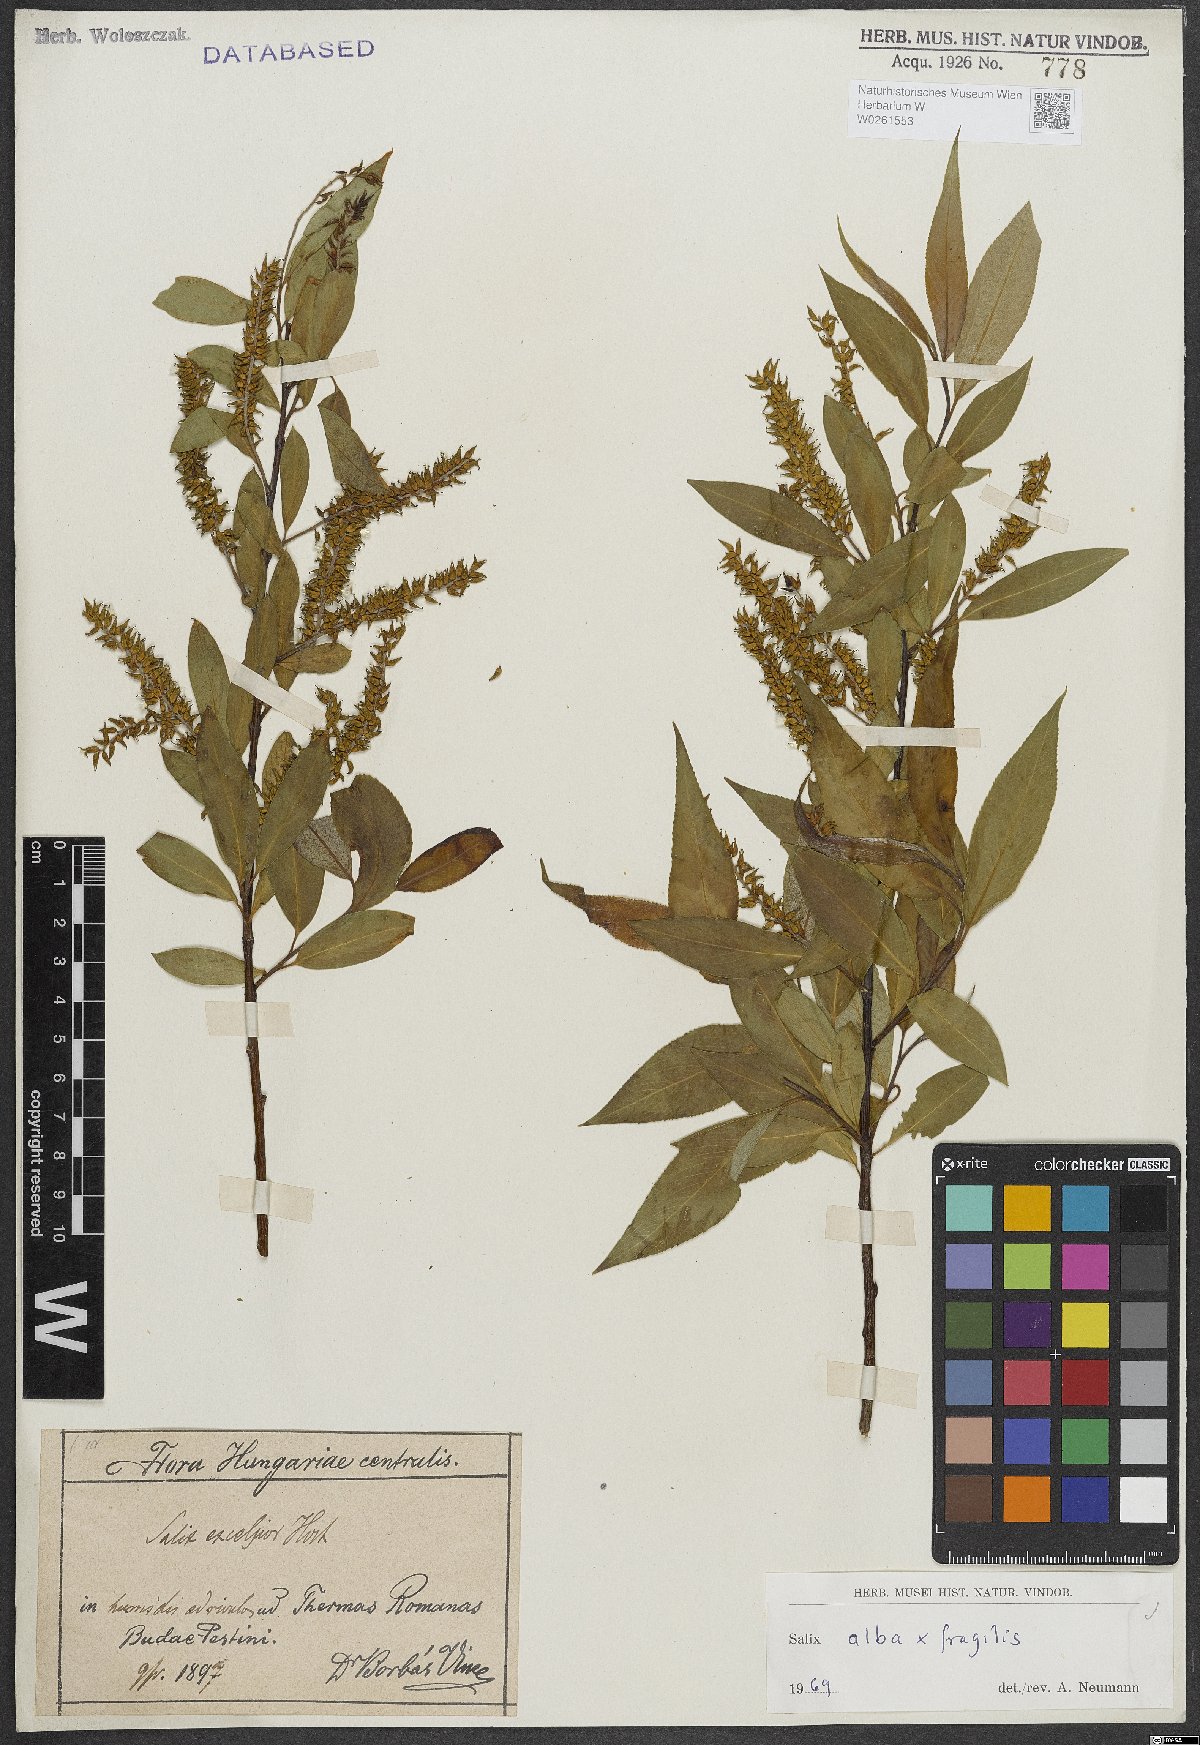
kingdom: Plantae
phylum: Tracheophyta
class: Magnoliopsida
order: Malpighiales
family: Salicaceae
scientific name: Salicaceae
